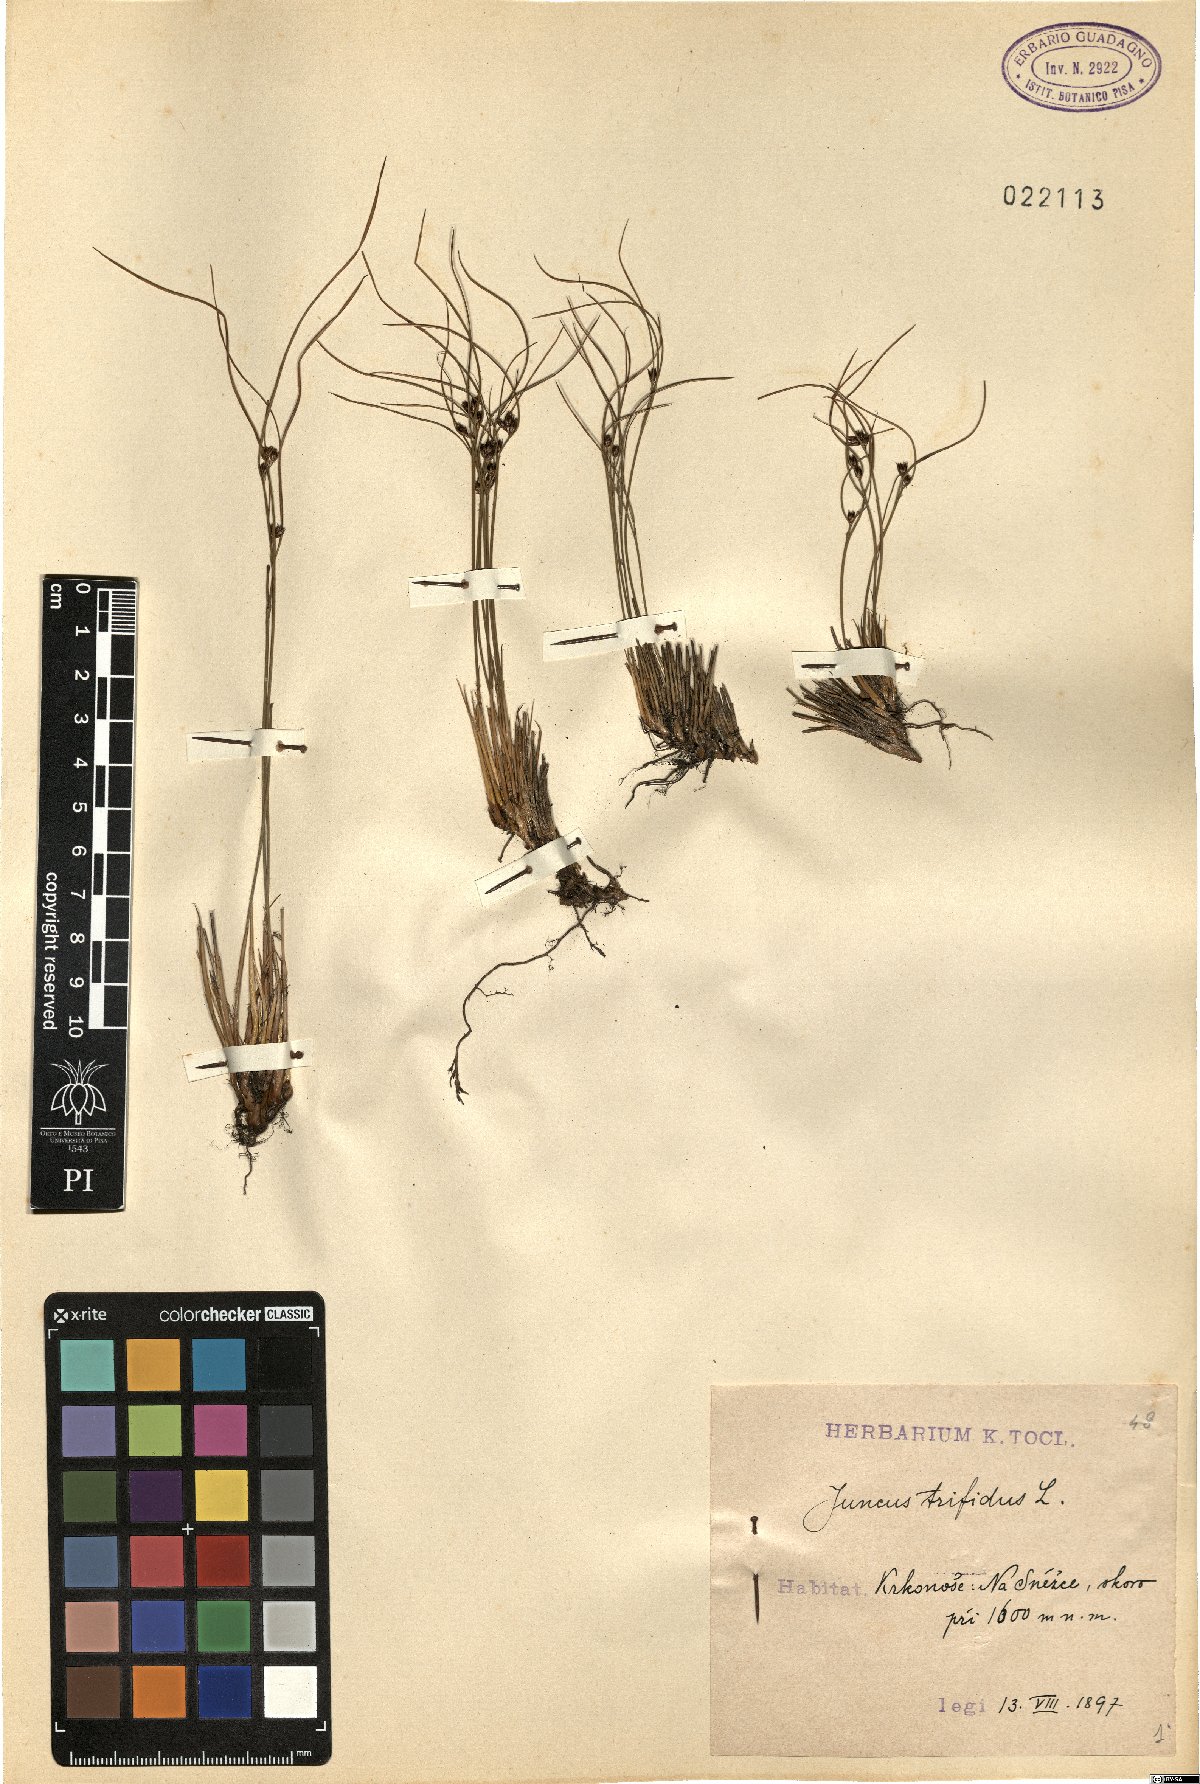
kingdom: Plantae
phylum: Tracheophyta
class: Liliopsida
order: Poales
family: Juncaceae
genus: Oreojuncus
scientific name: Oreojuncus trifidus
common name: Highland rush
